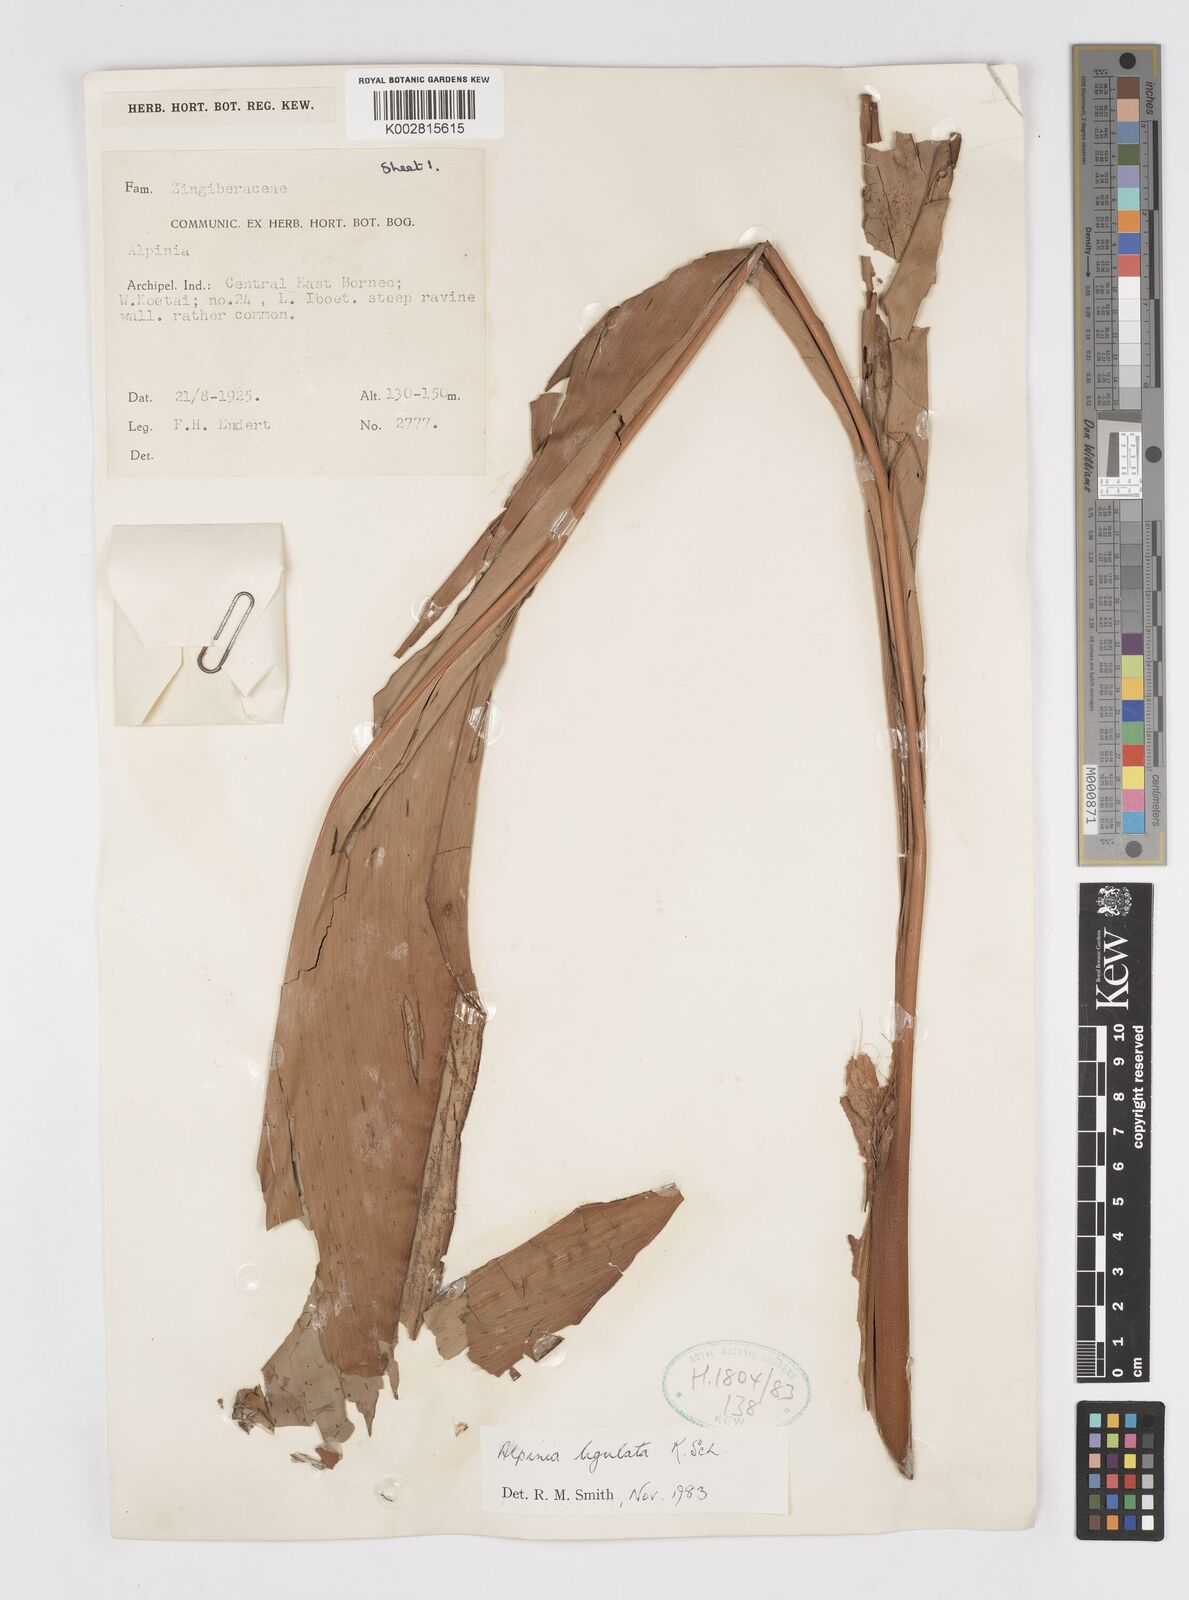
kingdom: Plantae
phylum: Tracheophyta
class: Liliopsida
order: Zingiberales
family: Zingiberaceae
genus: Alpinia
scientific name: Alpinia ligulata
